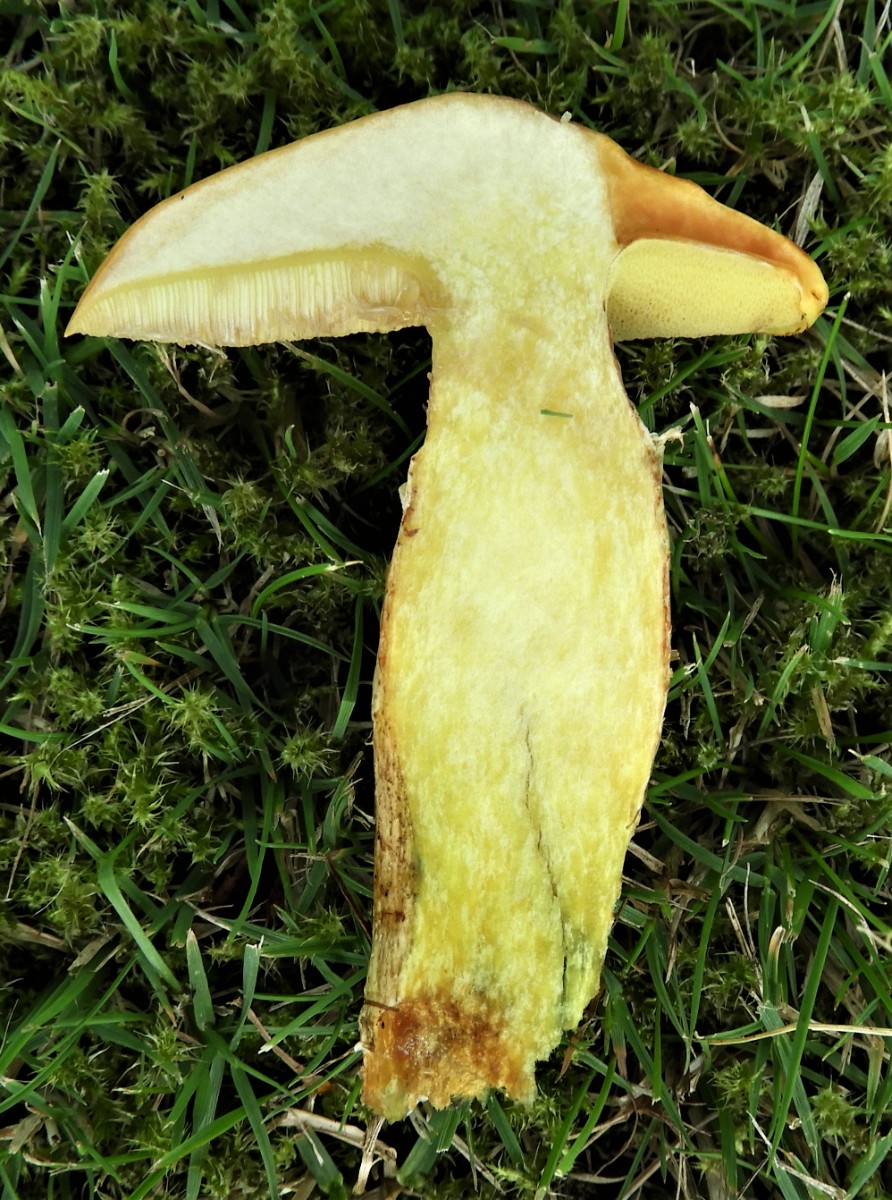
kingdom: Fungi
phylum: Basidiomycota
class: Agaricomycetes
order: Boletales
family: Suillaceae
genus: Suillus
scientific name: Suillus grevillei
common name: lærke-slimrørhat
